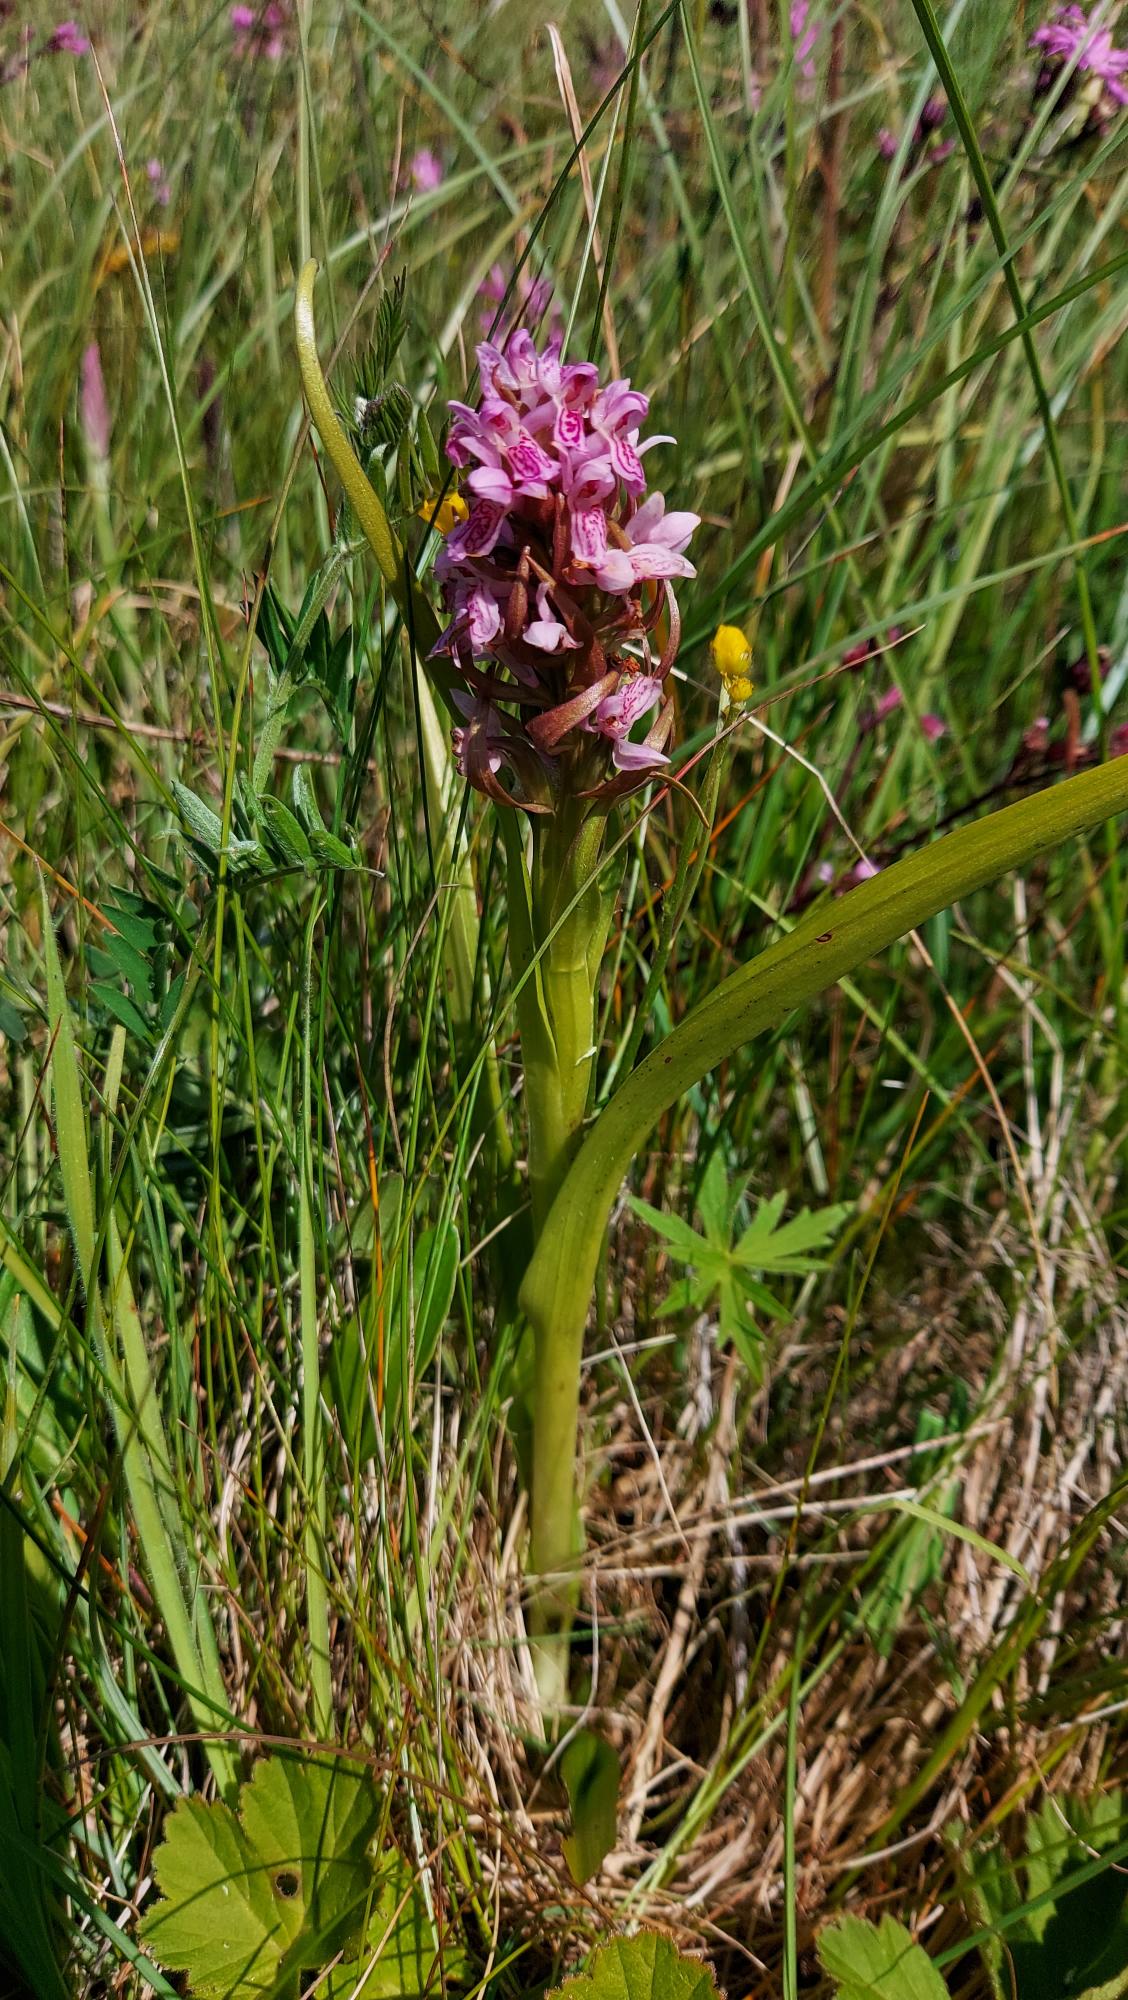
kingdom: Plantae
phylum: Tracheophyta
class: Liliopsida
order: Asparagales
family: Orchidaceae
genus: Dactylorhiza
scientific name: Dactylorhiza incarnata
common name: Kødfarvet gøgeurt
